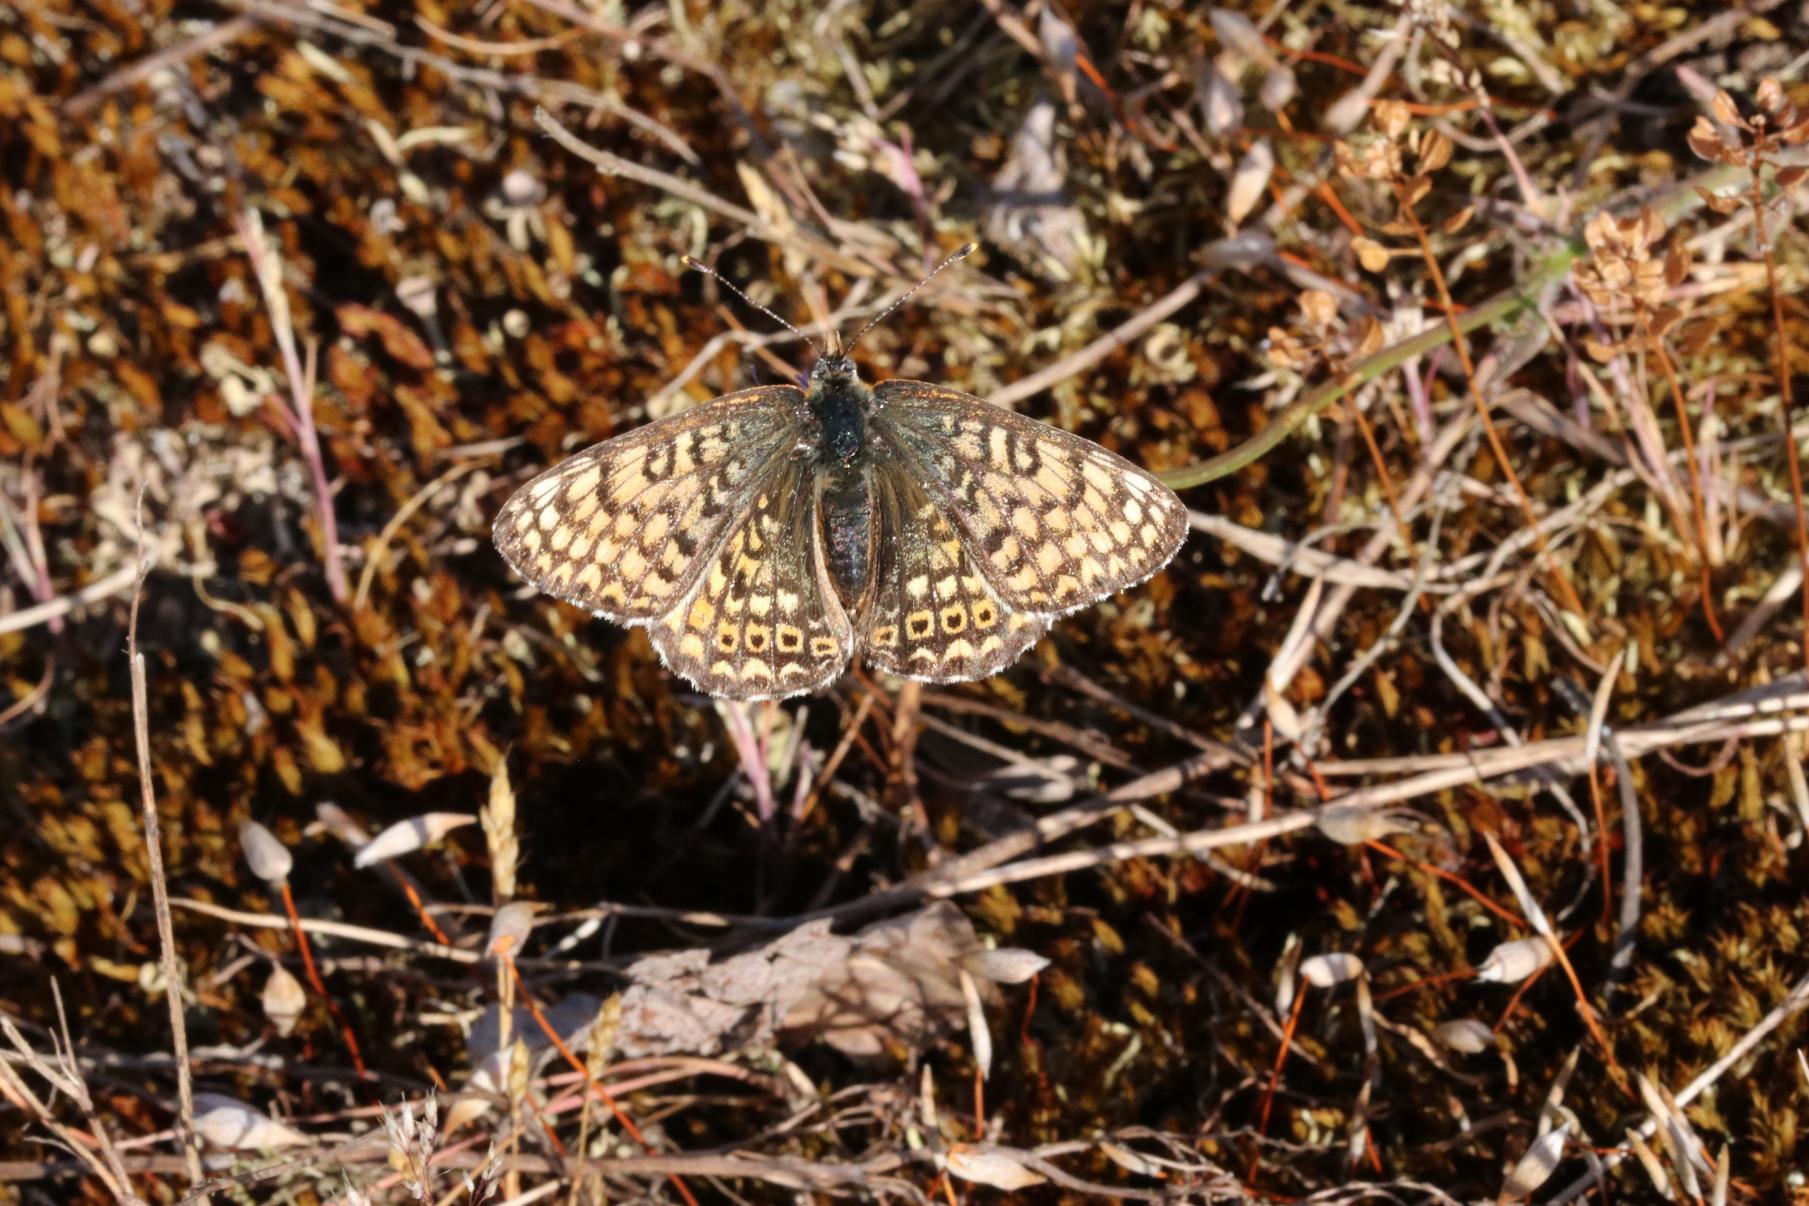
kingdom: Animalia
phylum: Arthropoda
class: Insecta
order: Lepidoptera
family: Nymphalidae
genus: Melitaea
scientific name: Melitaea cinxia
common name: Okkergul pletvinge
